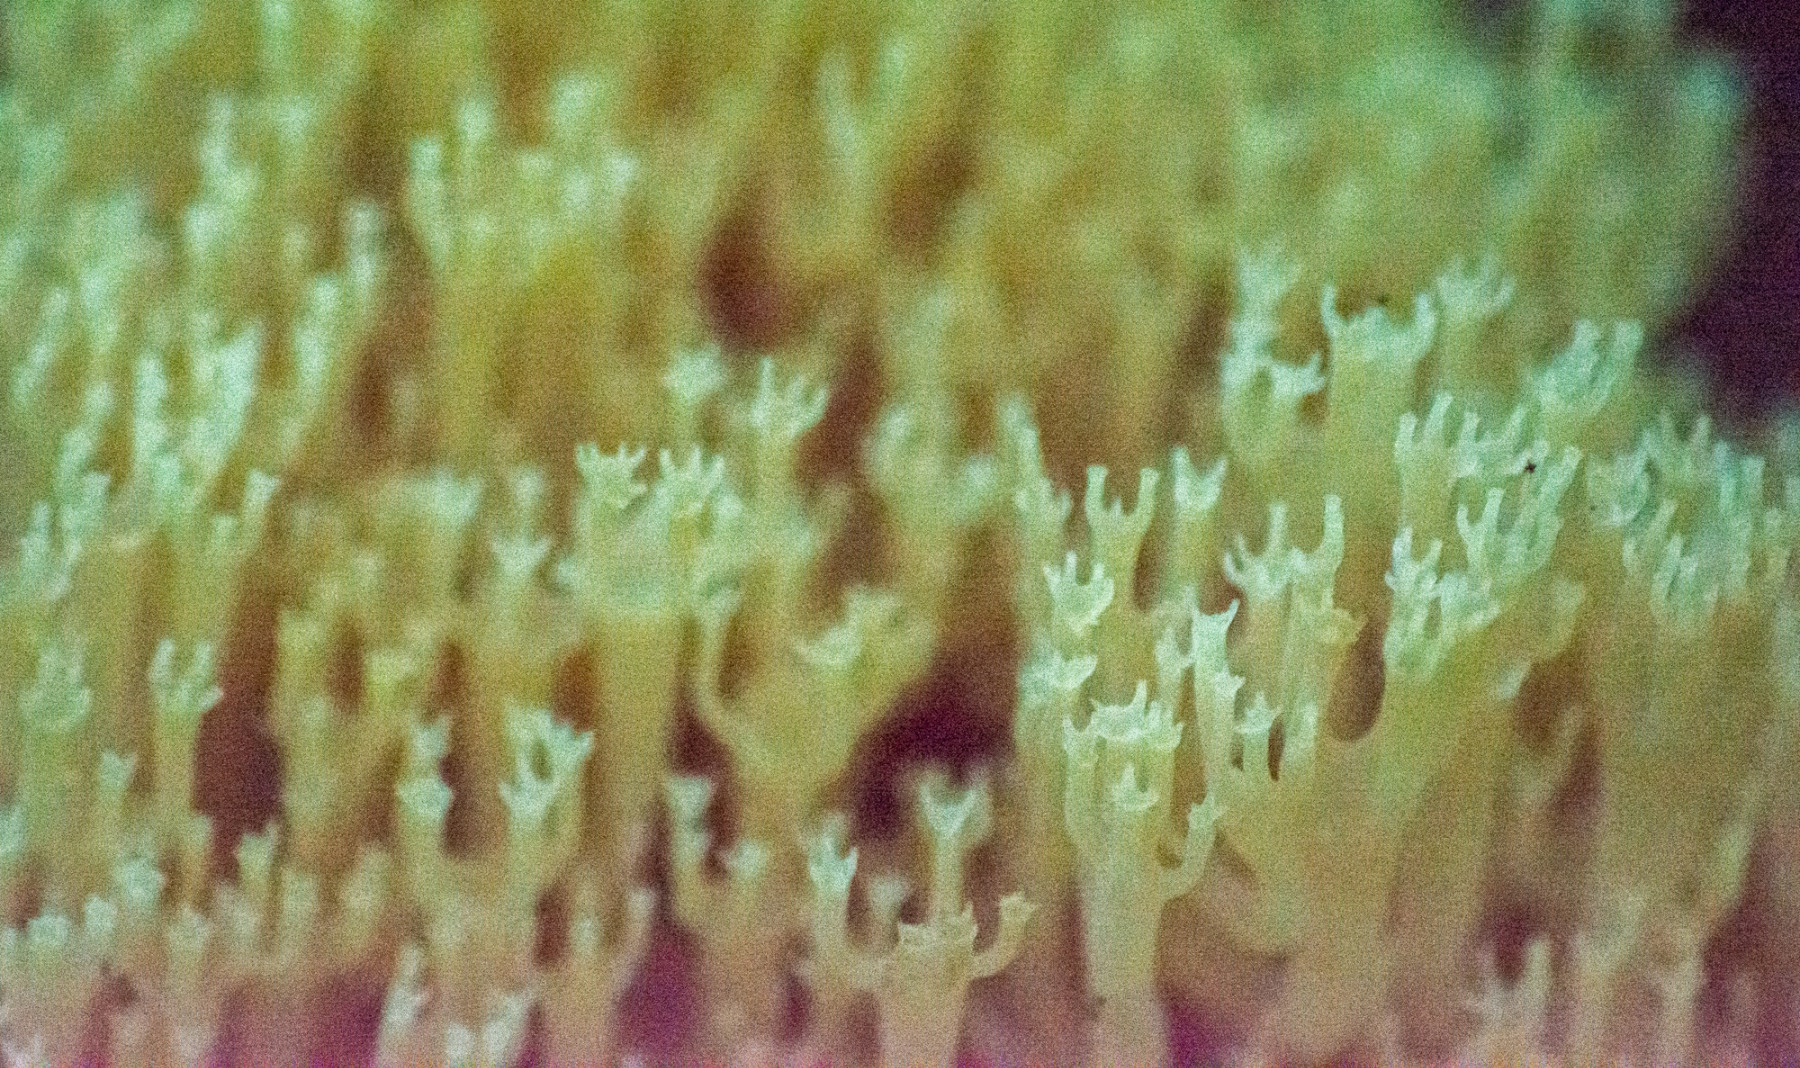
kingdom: Fungi
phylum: Basidiomycota
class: Agaricomycetes
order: Russulales
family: Auriscalpiaceae
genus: Artomyces
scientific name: Artomyces pyxidatus
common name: kandelabersvamp
